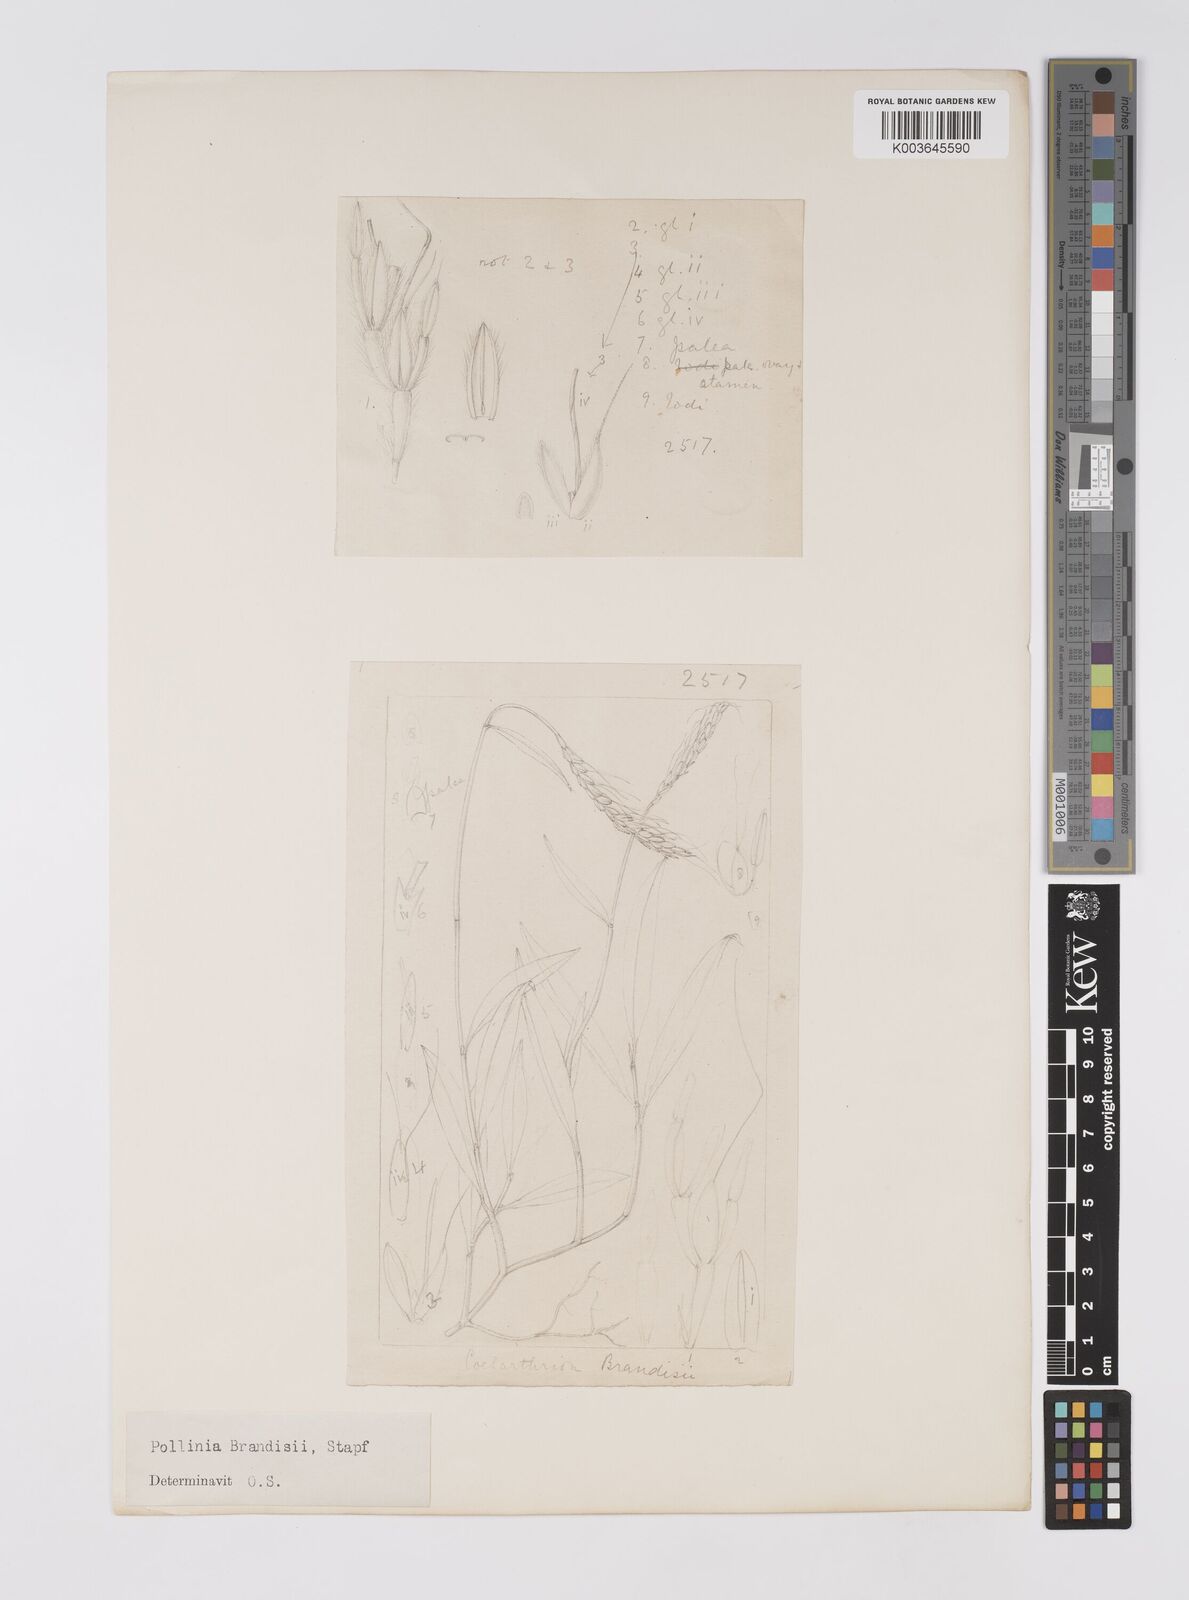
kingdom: Plantae
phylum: Tracheophyta
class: Liliopsida
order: Poales
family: Poaceae
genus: Microstegium
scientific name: Microstegium brandisii
